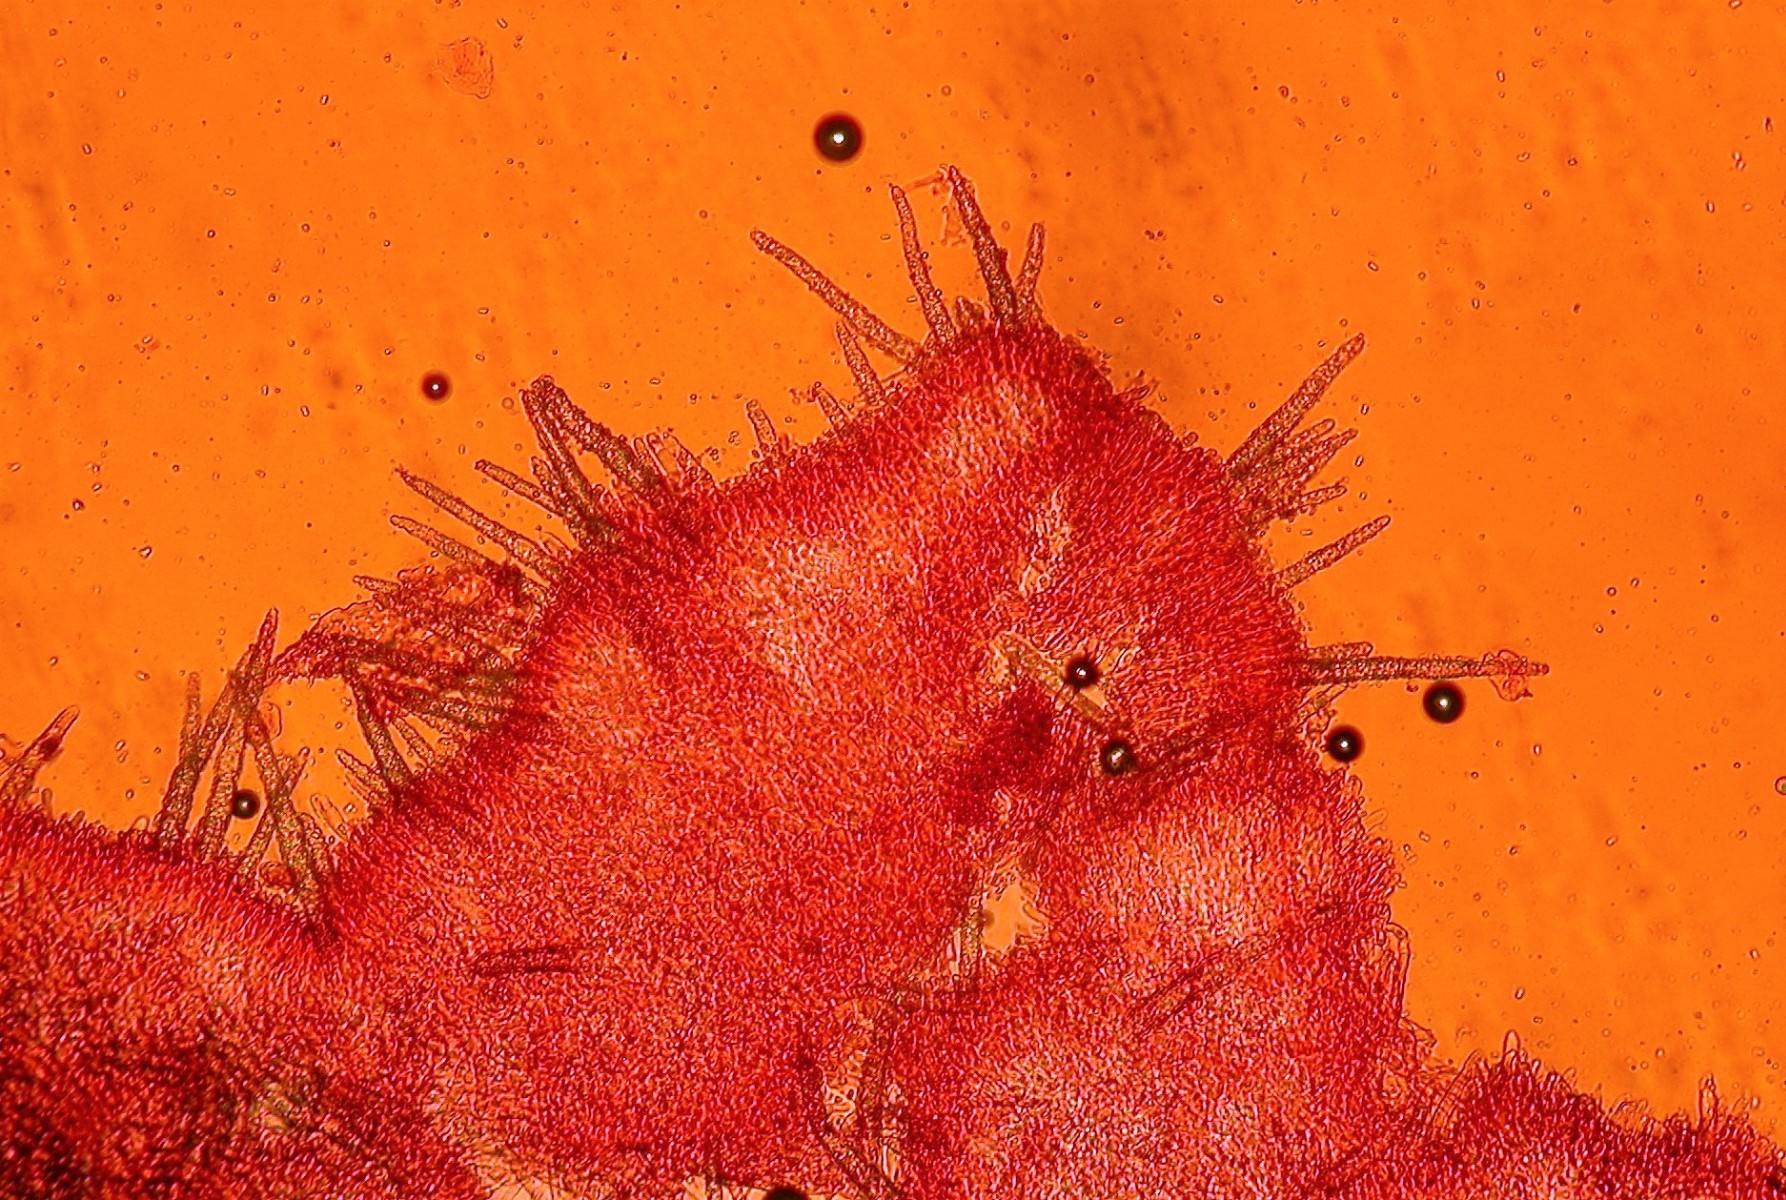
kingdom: Fungi
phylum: Basidiomycota
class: Agaricomycetes
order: Hymenochaetales
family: Rickenellaceae
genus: Peniophorella
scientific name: Peniophorella pubera
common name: dunet kalkskind
